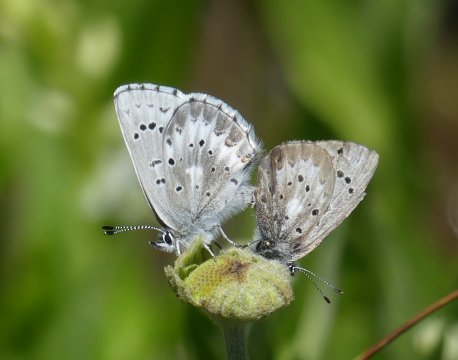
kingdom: Animalia
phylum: Arthropoda
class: Insecta
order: Lepidoptera
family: Lycaenidae
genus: Glaucopsyche
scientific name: Glaucopsyche piasus
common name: Arrowhead Blue
